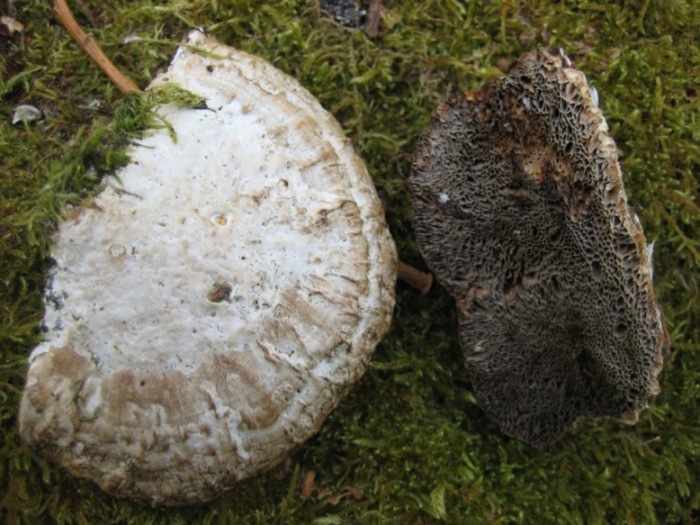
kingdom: Fungi
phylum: Basidiomycota
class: Agaricomycetes
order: Polyporales
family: Polyporaceae
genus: Daedaleopsis
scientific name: Daedaleopsis confragosa
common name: rødmende læderporesvamp
